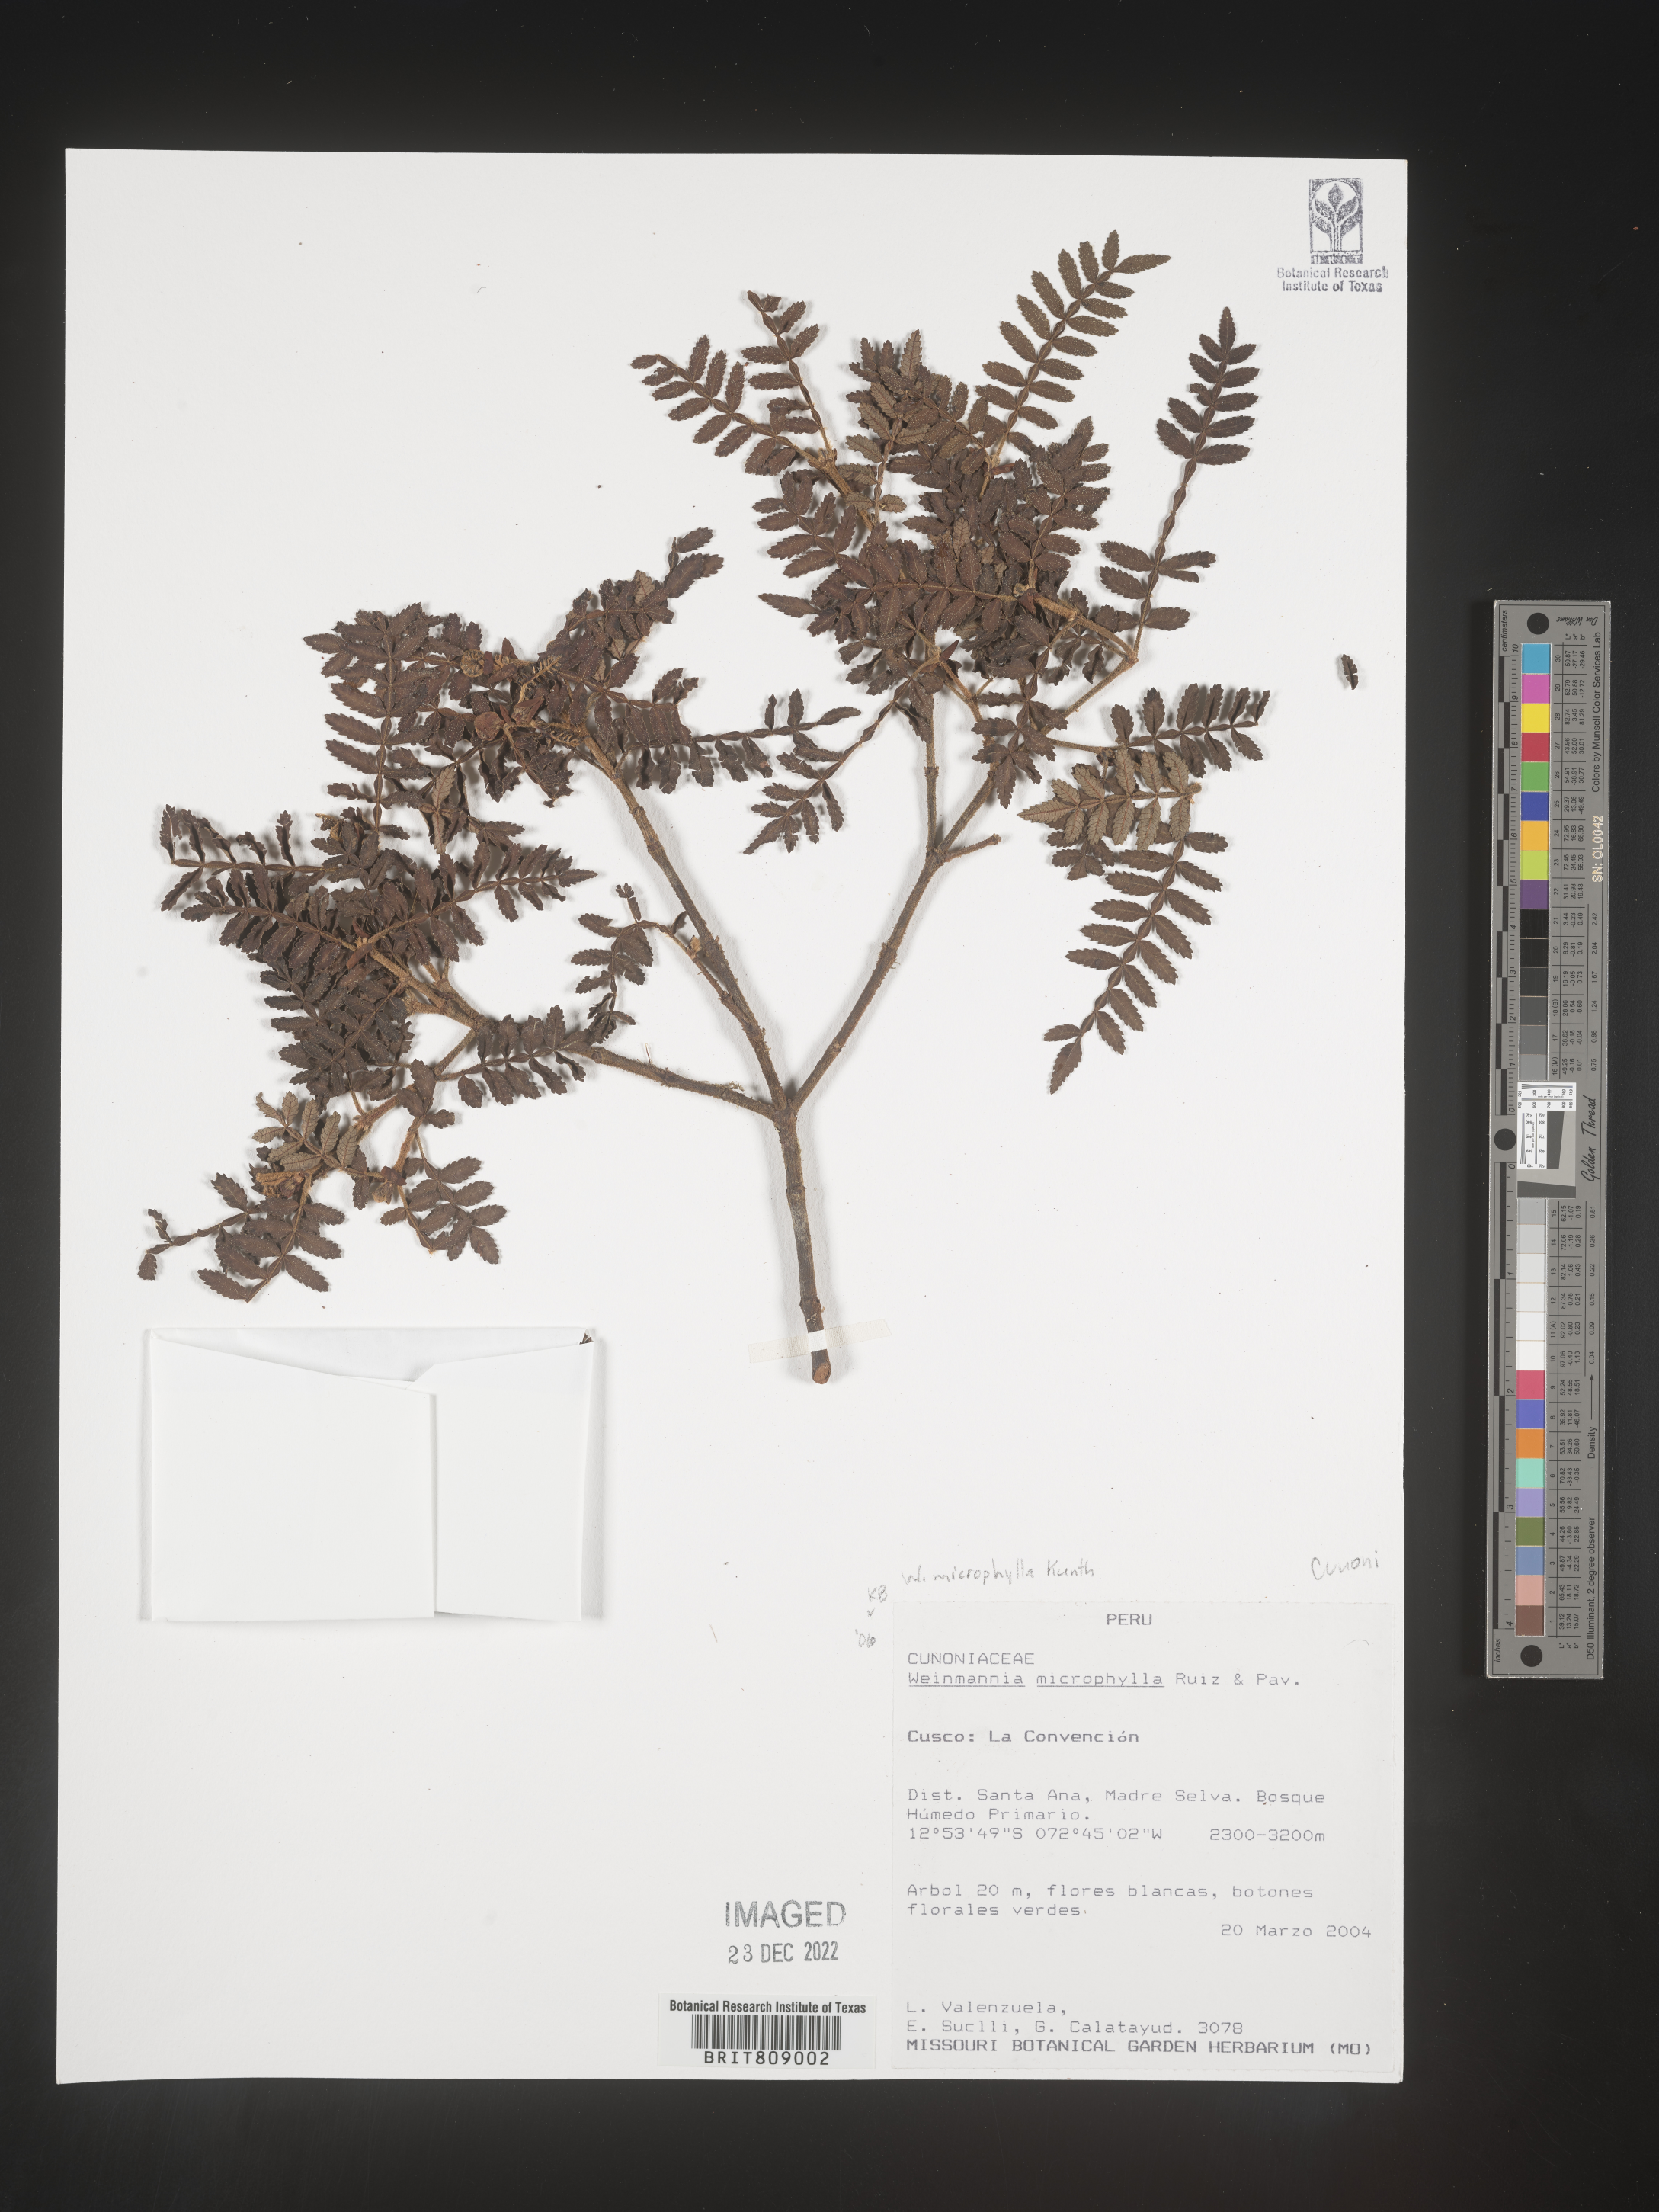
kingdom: Plantae
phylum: Tracheophyta
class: Magnoliopsida
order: Oxalidales
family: Cunoniaceae
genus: Weinmannia
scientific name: Weinmannia
